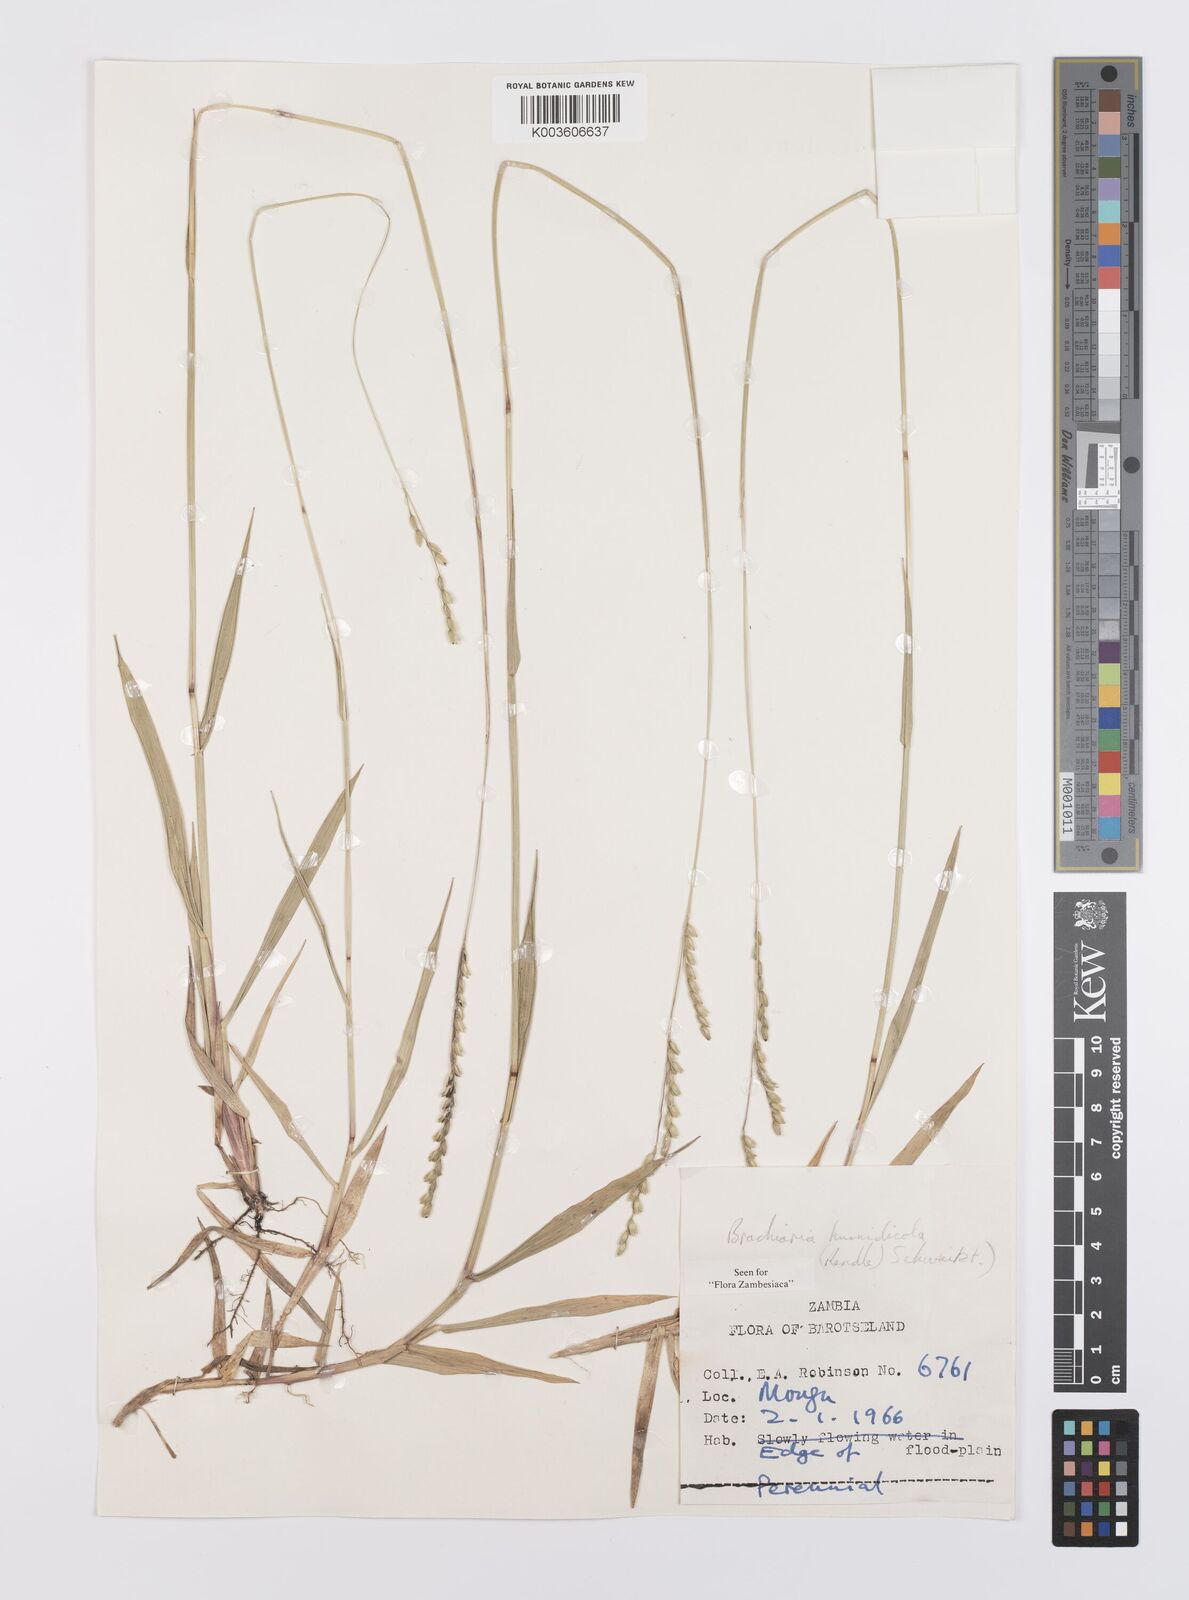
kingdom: Plantae
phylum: Tracheophyta
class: Liliopsida
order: Poales
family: Poaceae
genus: Urochloa
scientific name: Urochloa dictyoneura
